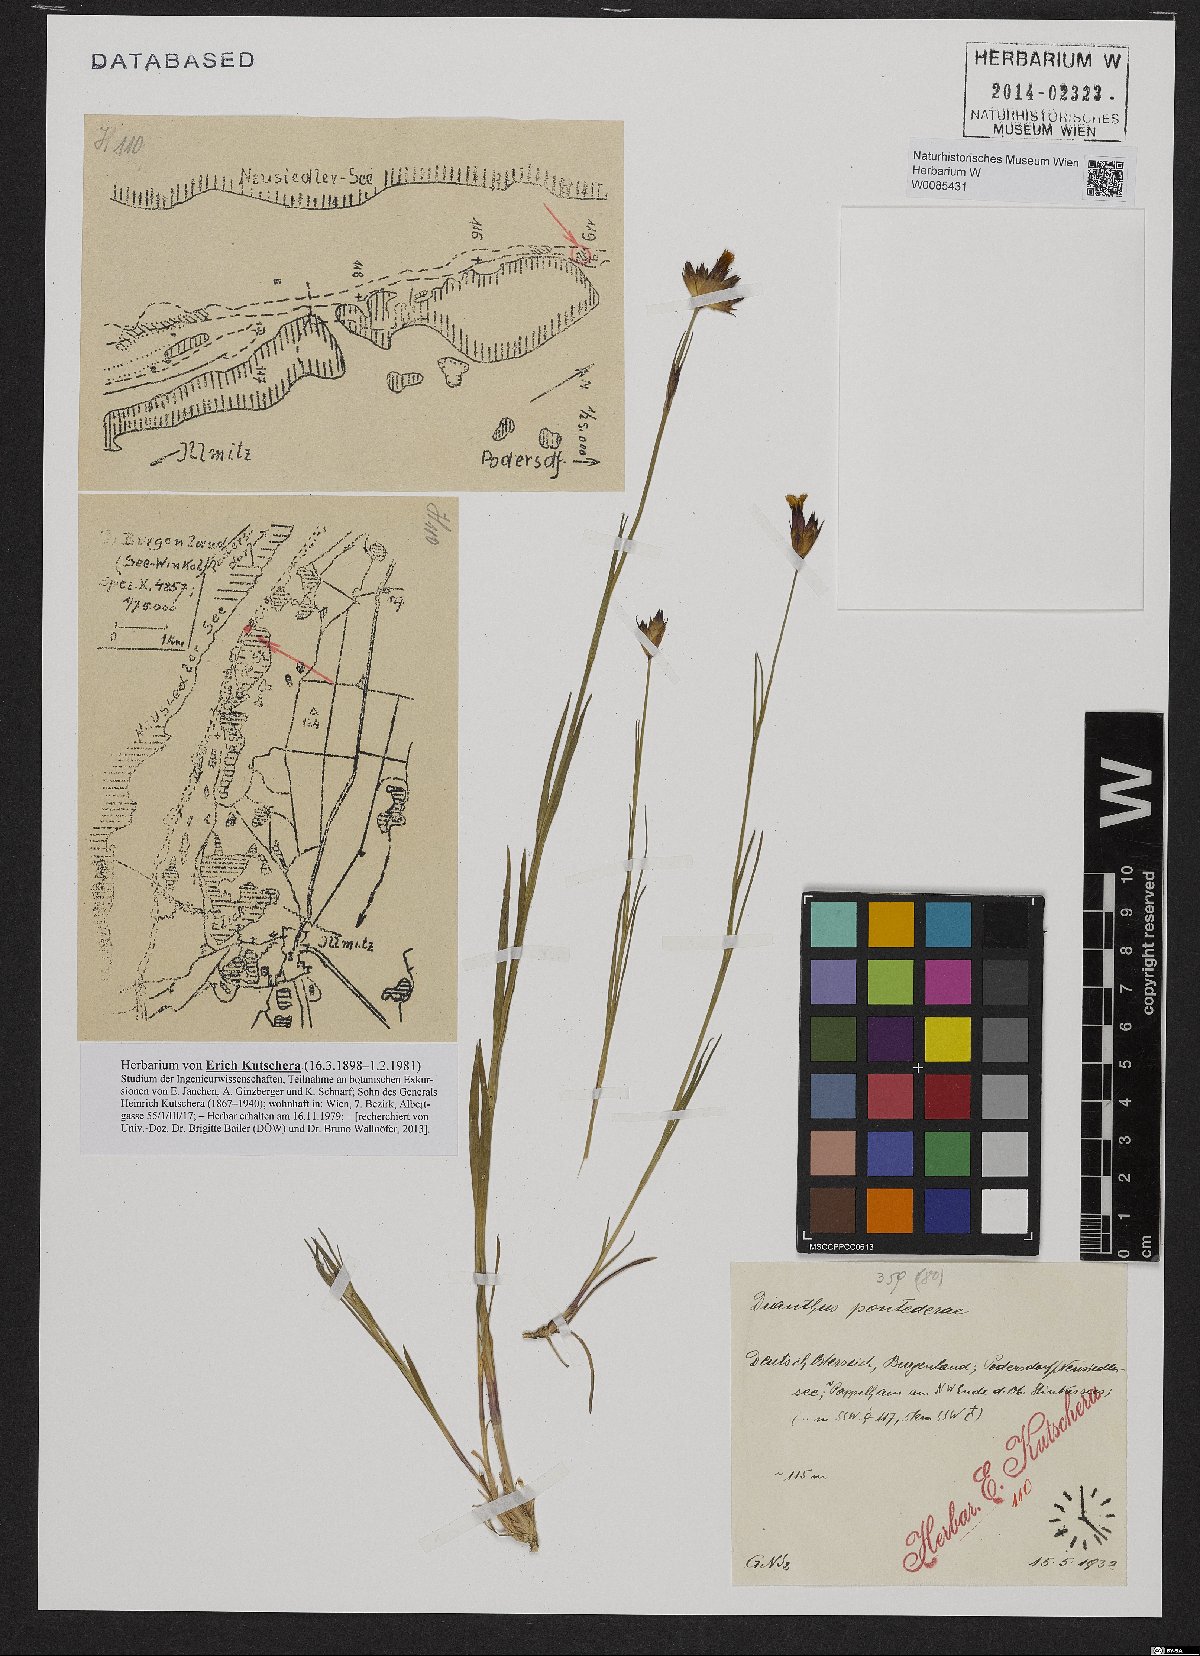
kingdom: Plantae
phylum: Tracheophyta
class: Magnoliopsida
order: Caryophyllales
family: Caryophyllaceae
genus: Dianthus
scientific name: Dianthus pontederae
